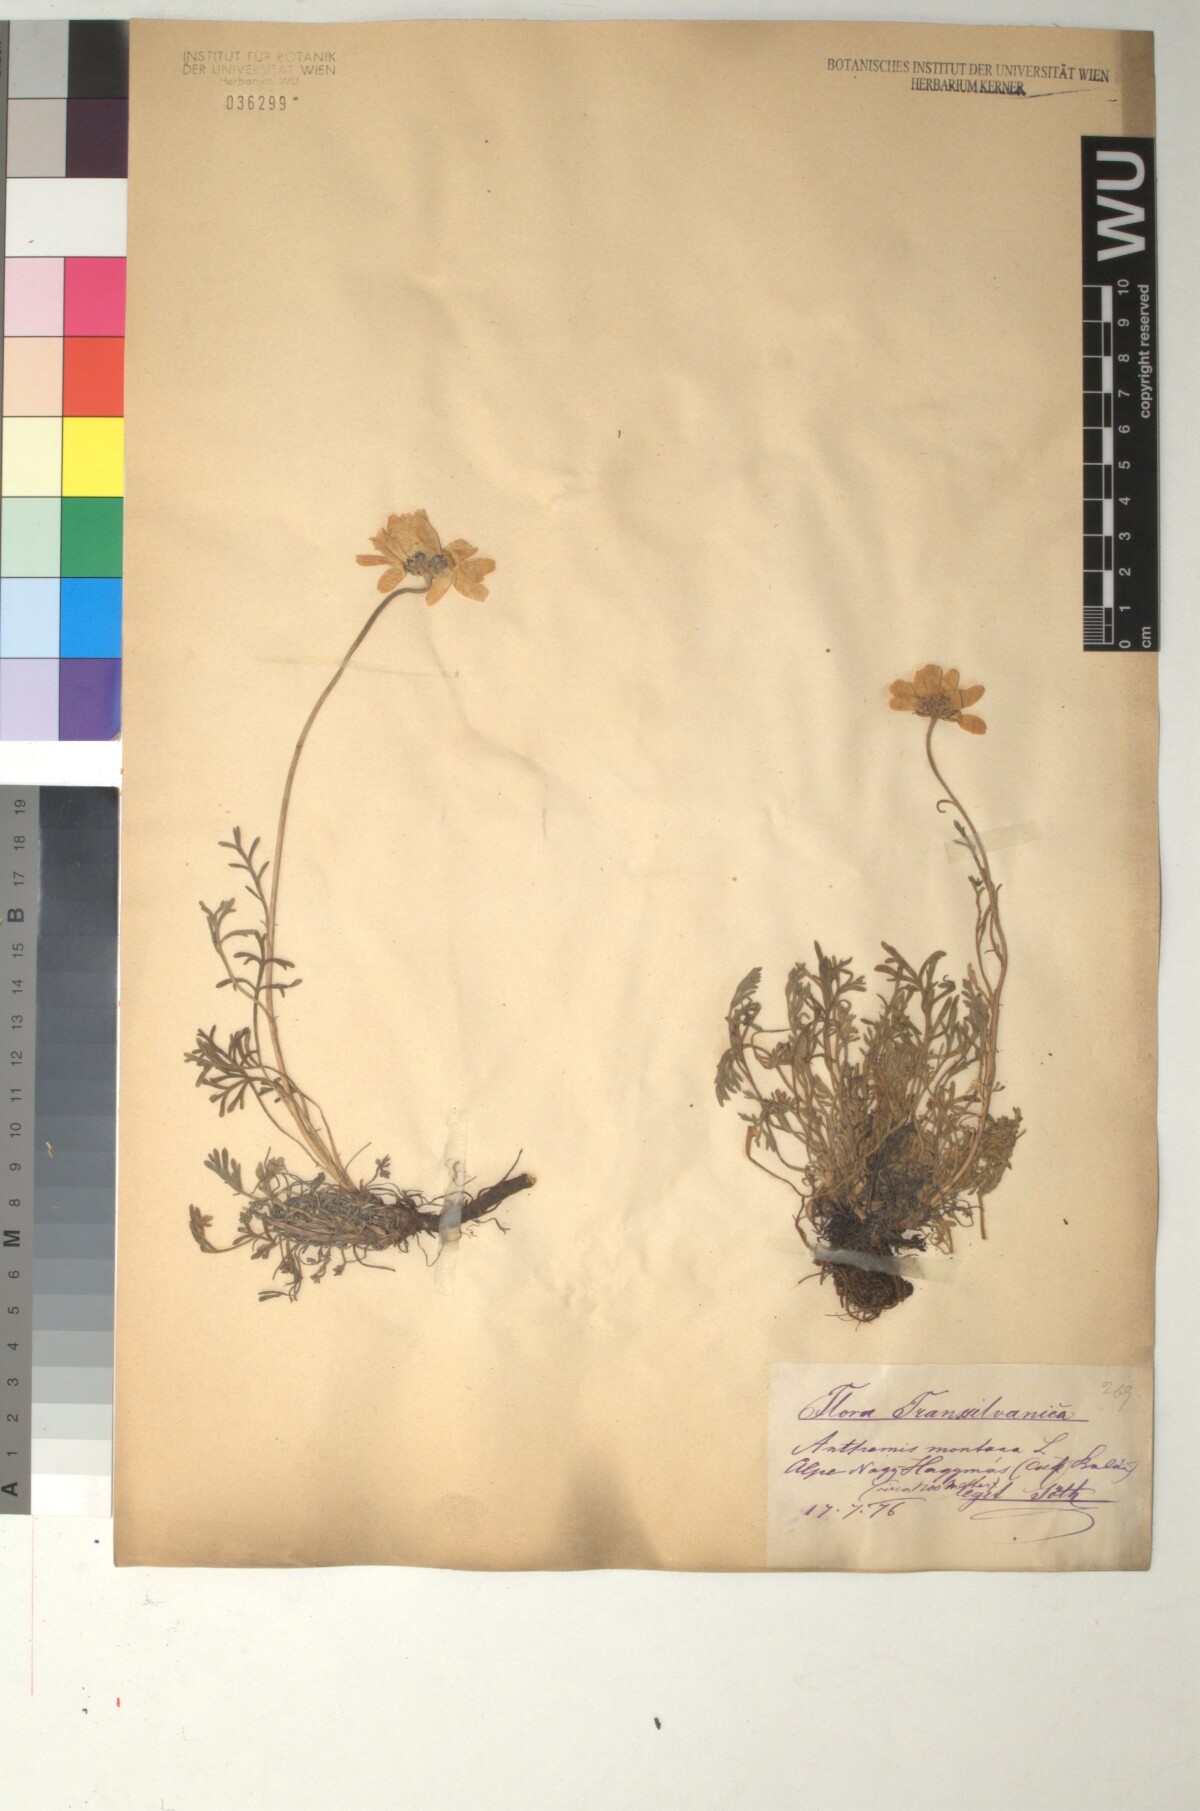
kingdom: Plantae
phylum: Tracheophyta
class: Magnoliopsida
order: Asterales
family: Asteraceae
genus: Anthemis
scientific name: Anthemis cretica
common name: Mountain dog-daisy
